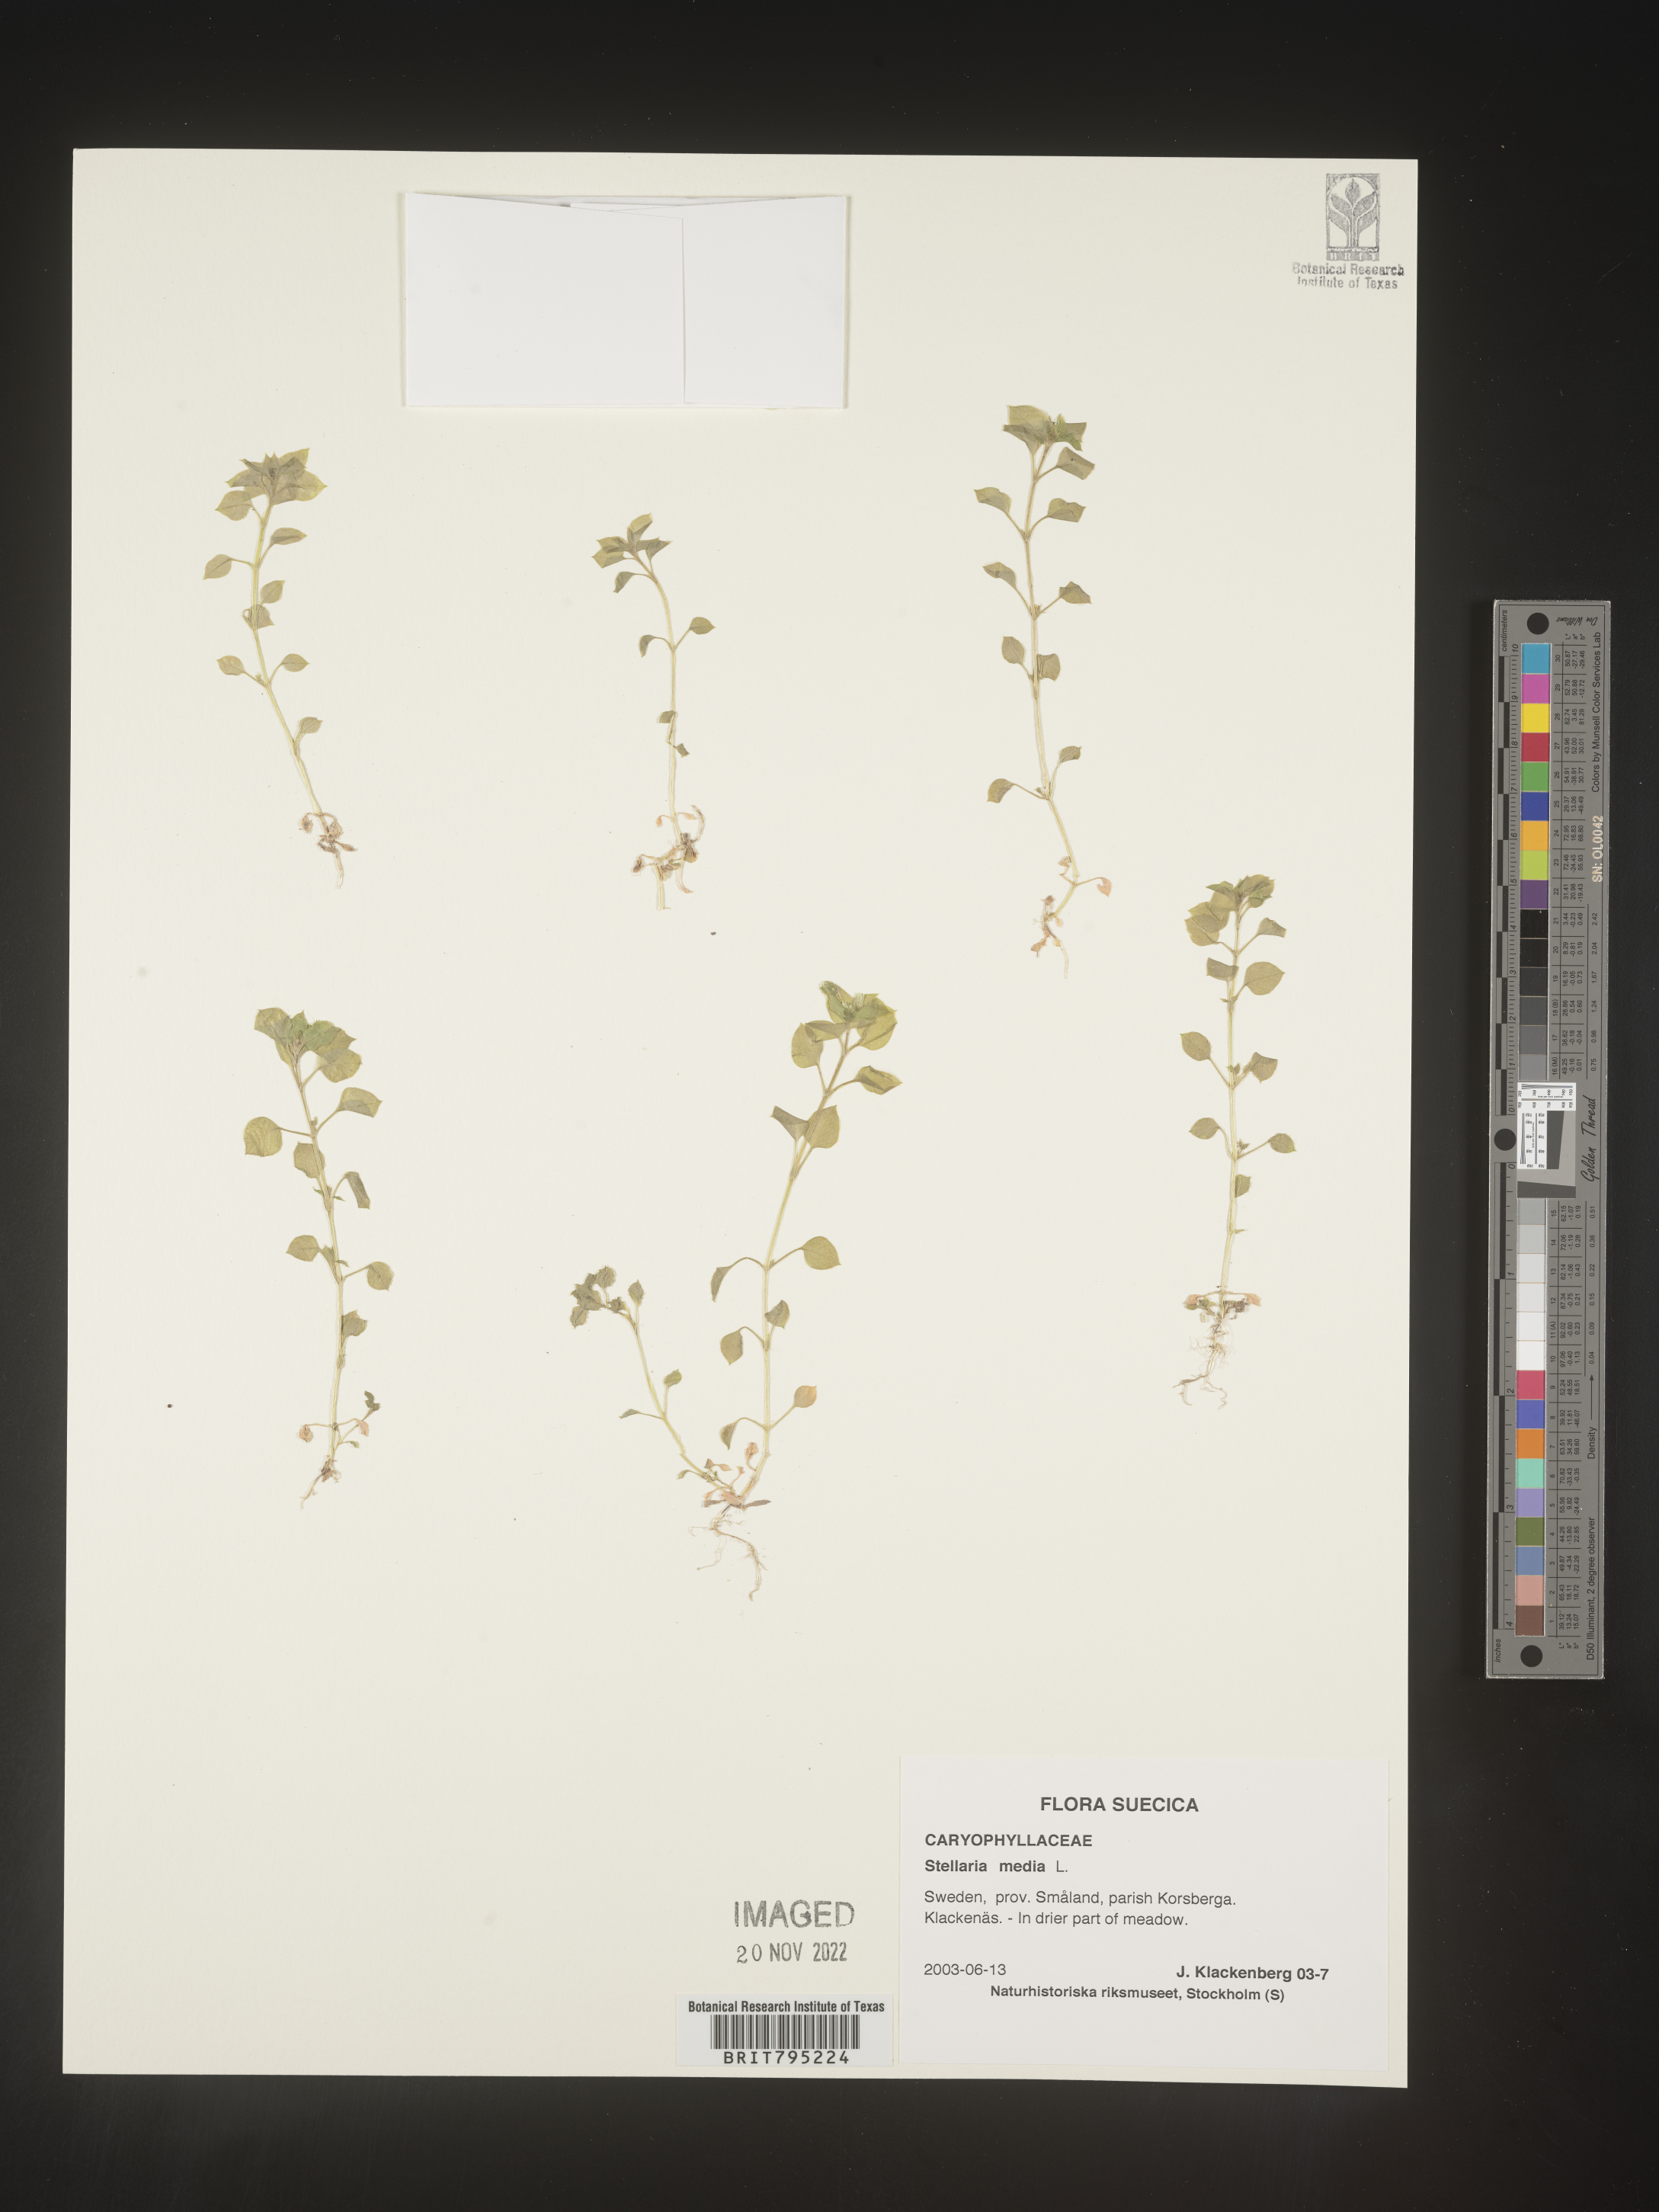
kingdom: Plantae
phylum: Tracheophyta
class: Magnoliopsida
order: Caryophyllales
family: Caryophyllaceae
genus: Stellaria
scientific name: Stellaria
